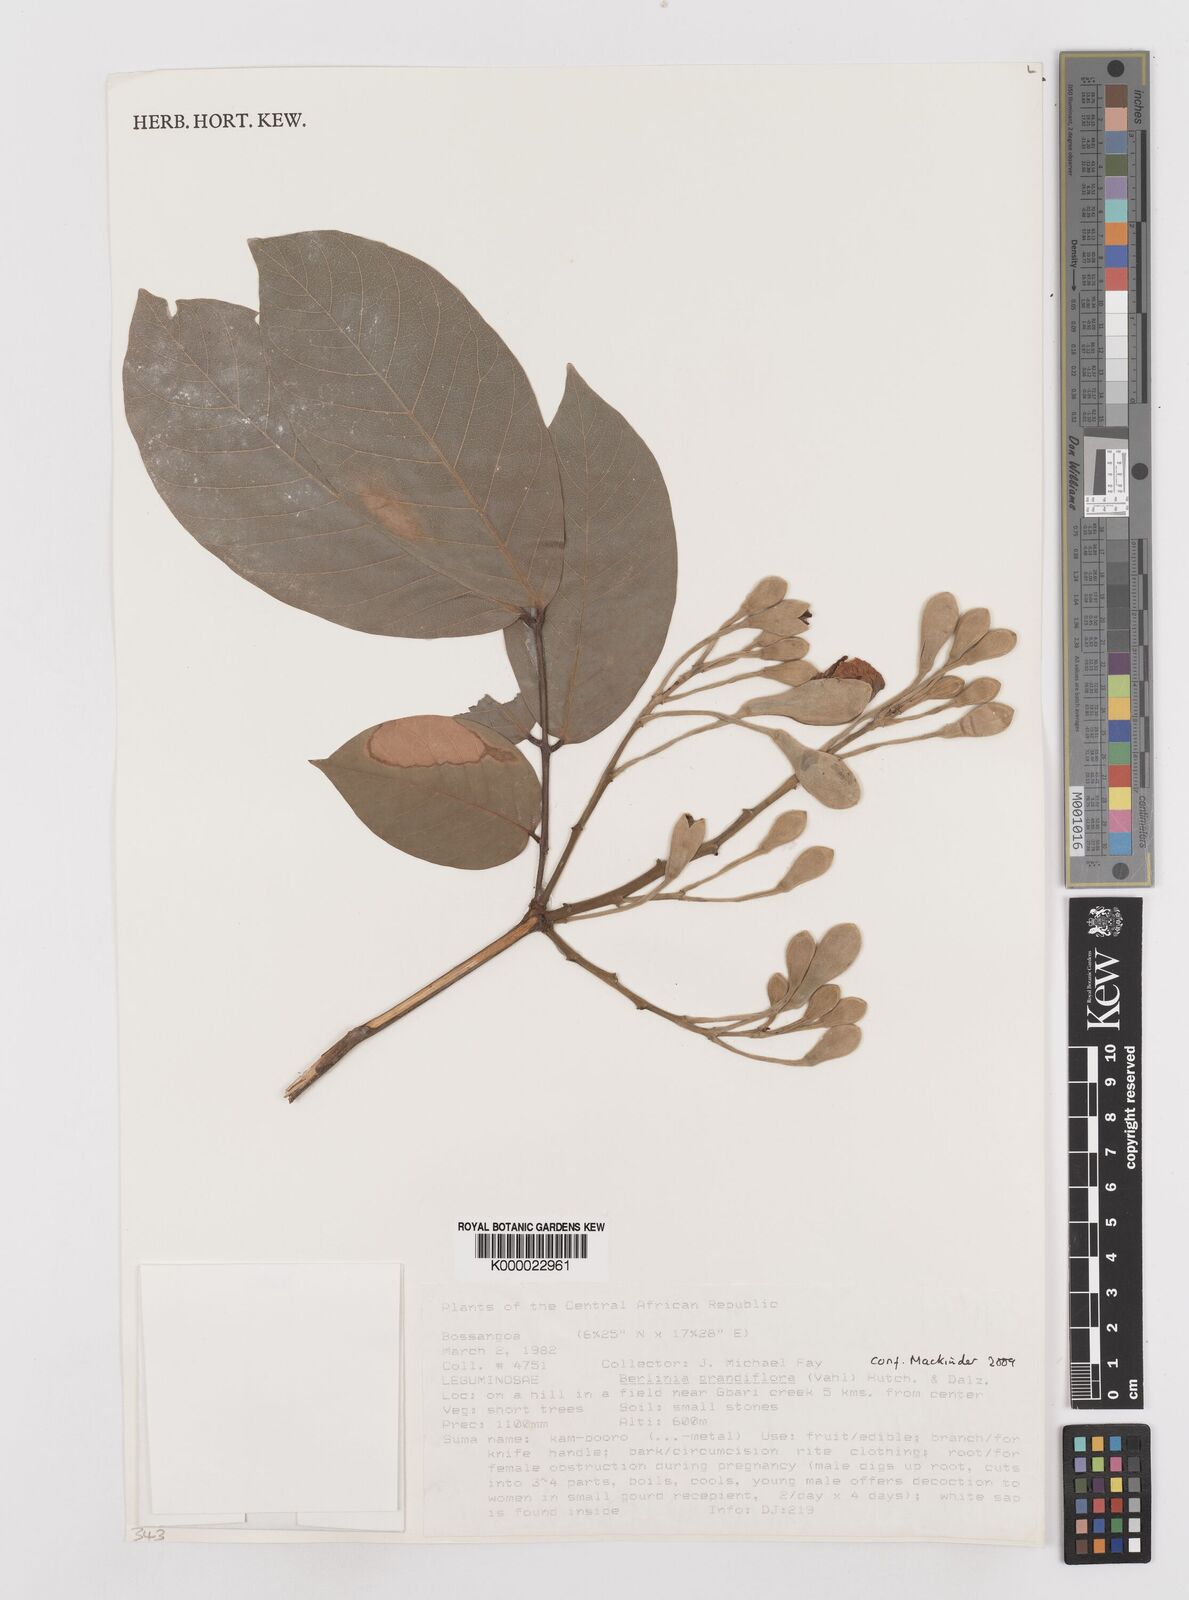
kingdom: Plantae
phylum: Tracheophyta
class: Magnoliopsida
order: Fabales
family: Fabaceae
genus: Berlinia
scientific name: Berlinia grandiflora
